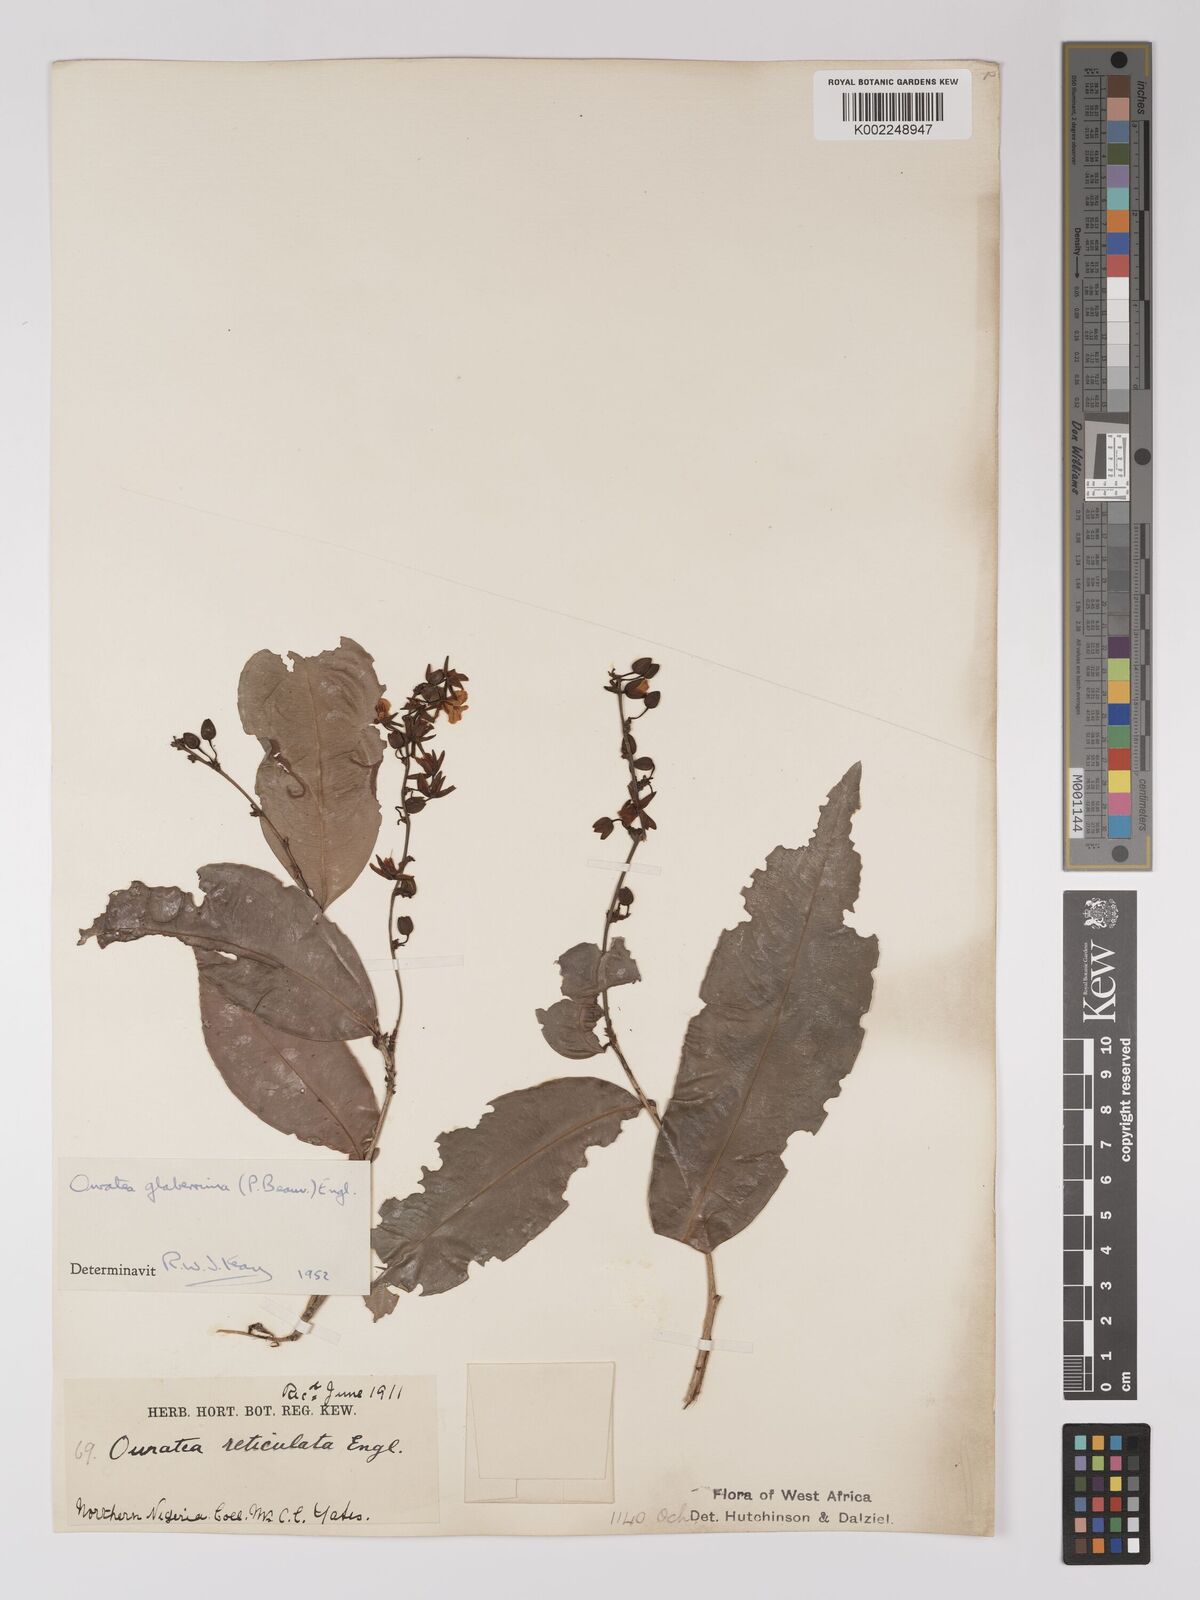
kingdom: Plantae
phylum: Tracheophyta
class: Magnoliopsida
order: Malpighiales
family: Ochnaceae
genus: Campylospermum
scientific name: Campylospermum glaberrimum
